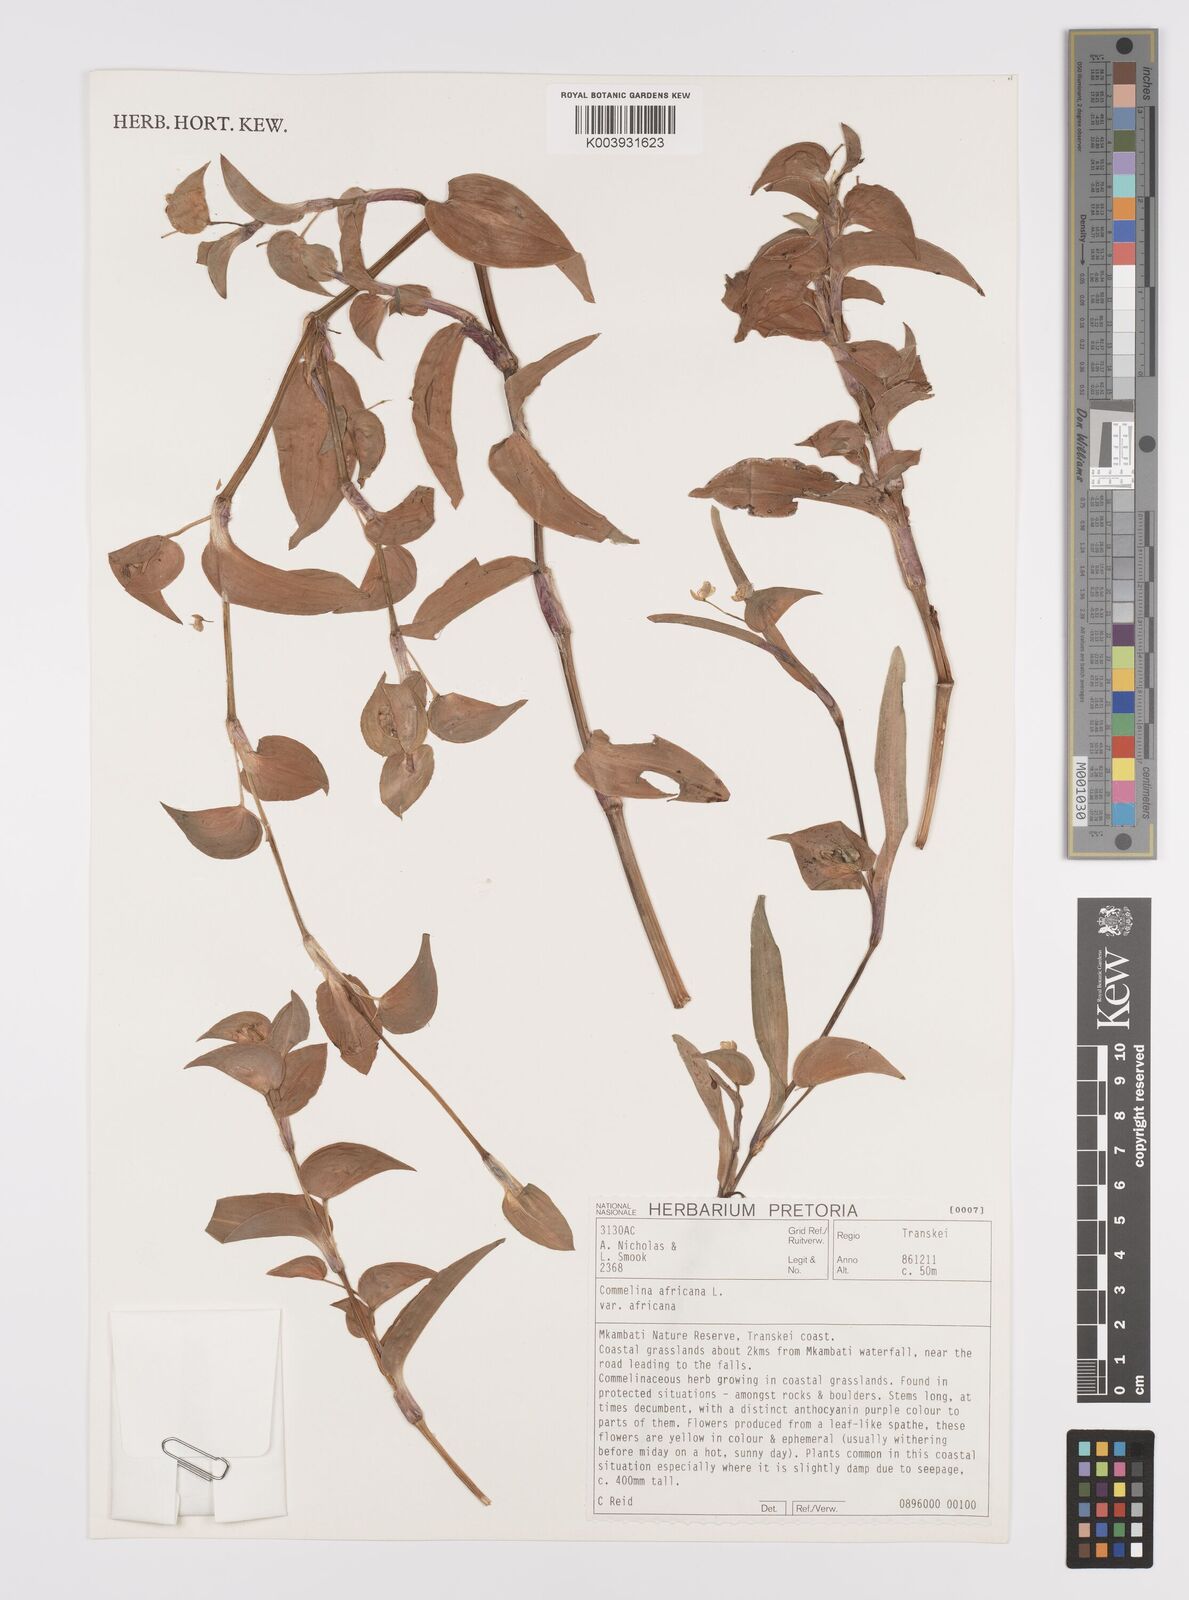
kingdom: Plantae
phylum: Tracheophyta
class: Liliopsida
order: Commelinales
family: Commelinaceae
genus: Commelina
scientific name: Commelina africana
